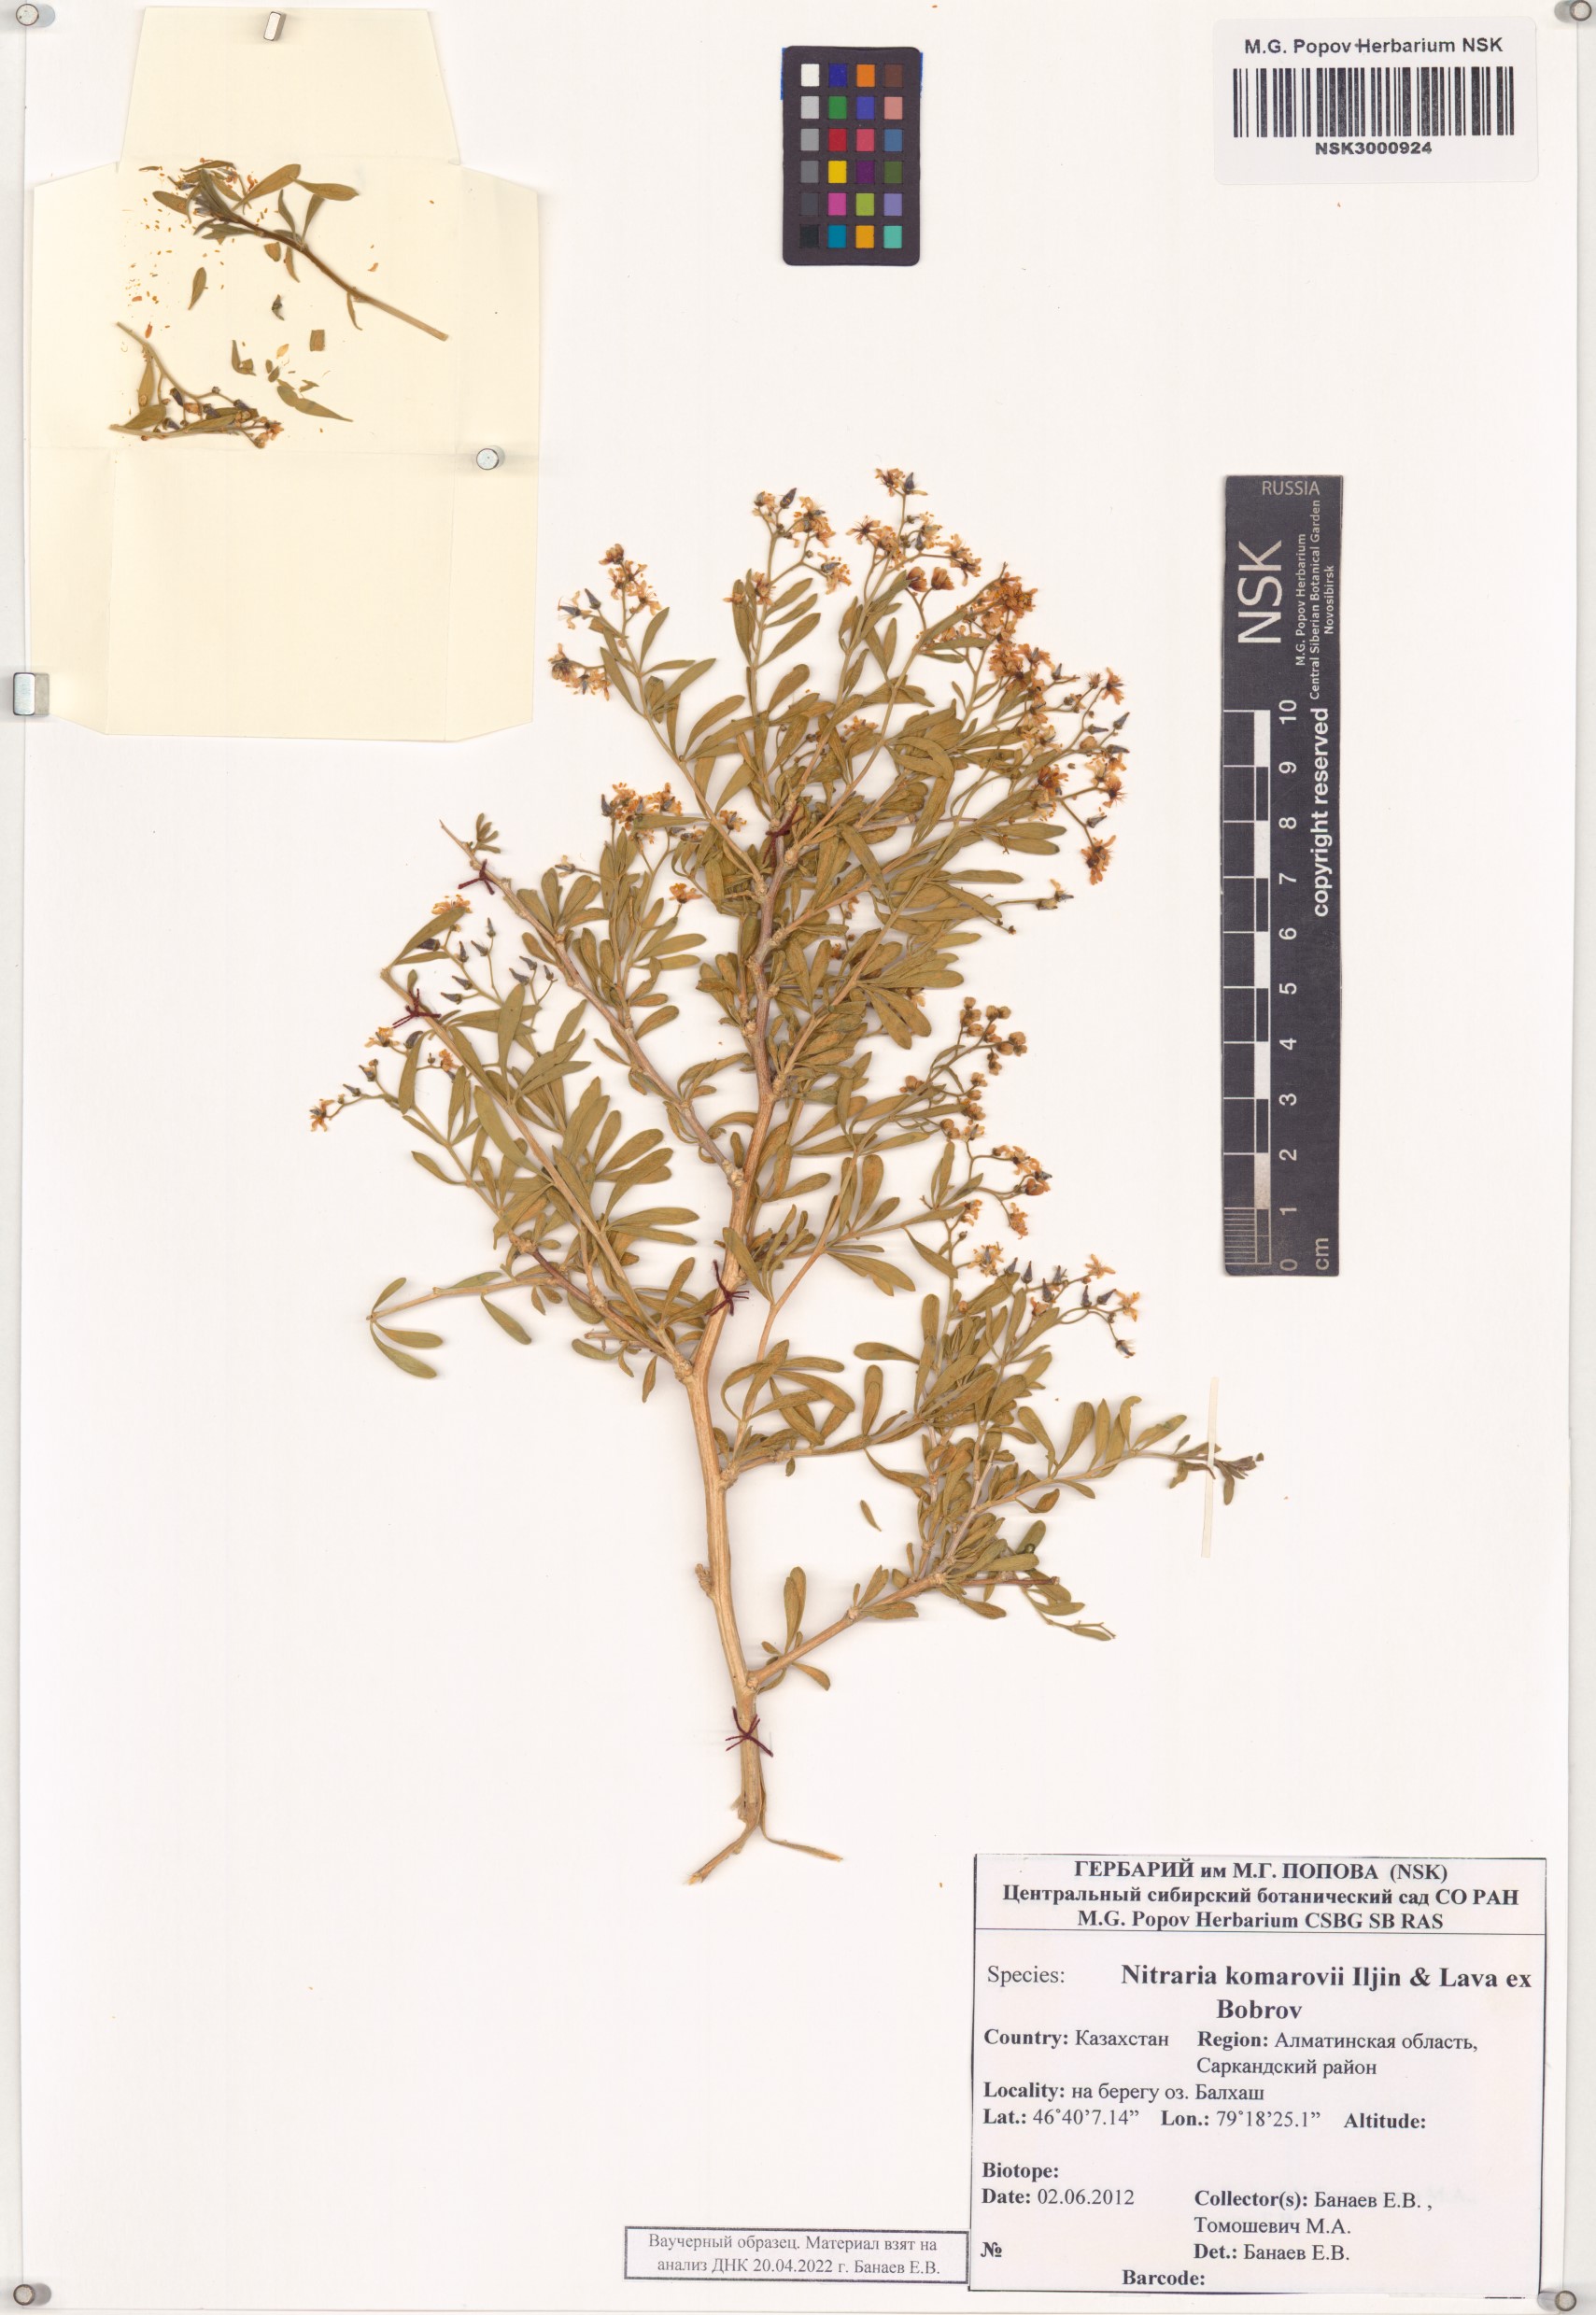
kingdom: Plantae
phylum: Tracheophyta
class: Magnoliopsida
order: Sapindales
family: Nitrariaceae
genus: Nitraria
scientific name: Nitraria komarovii
